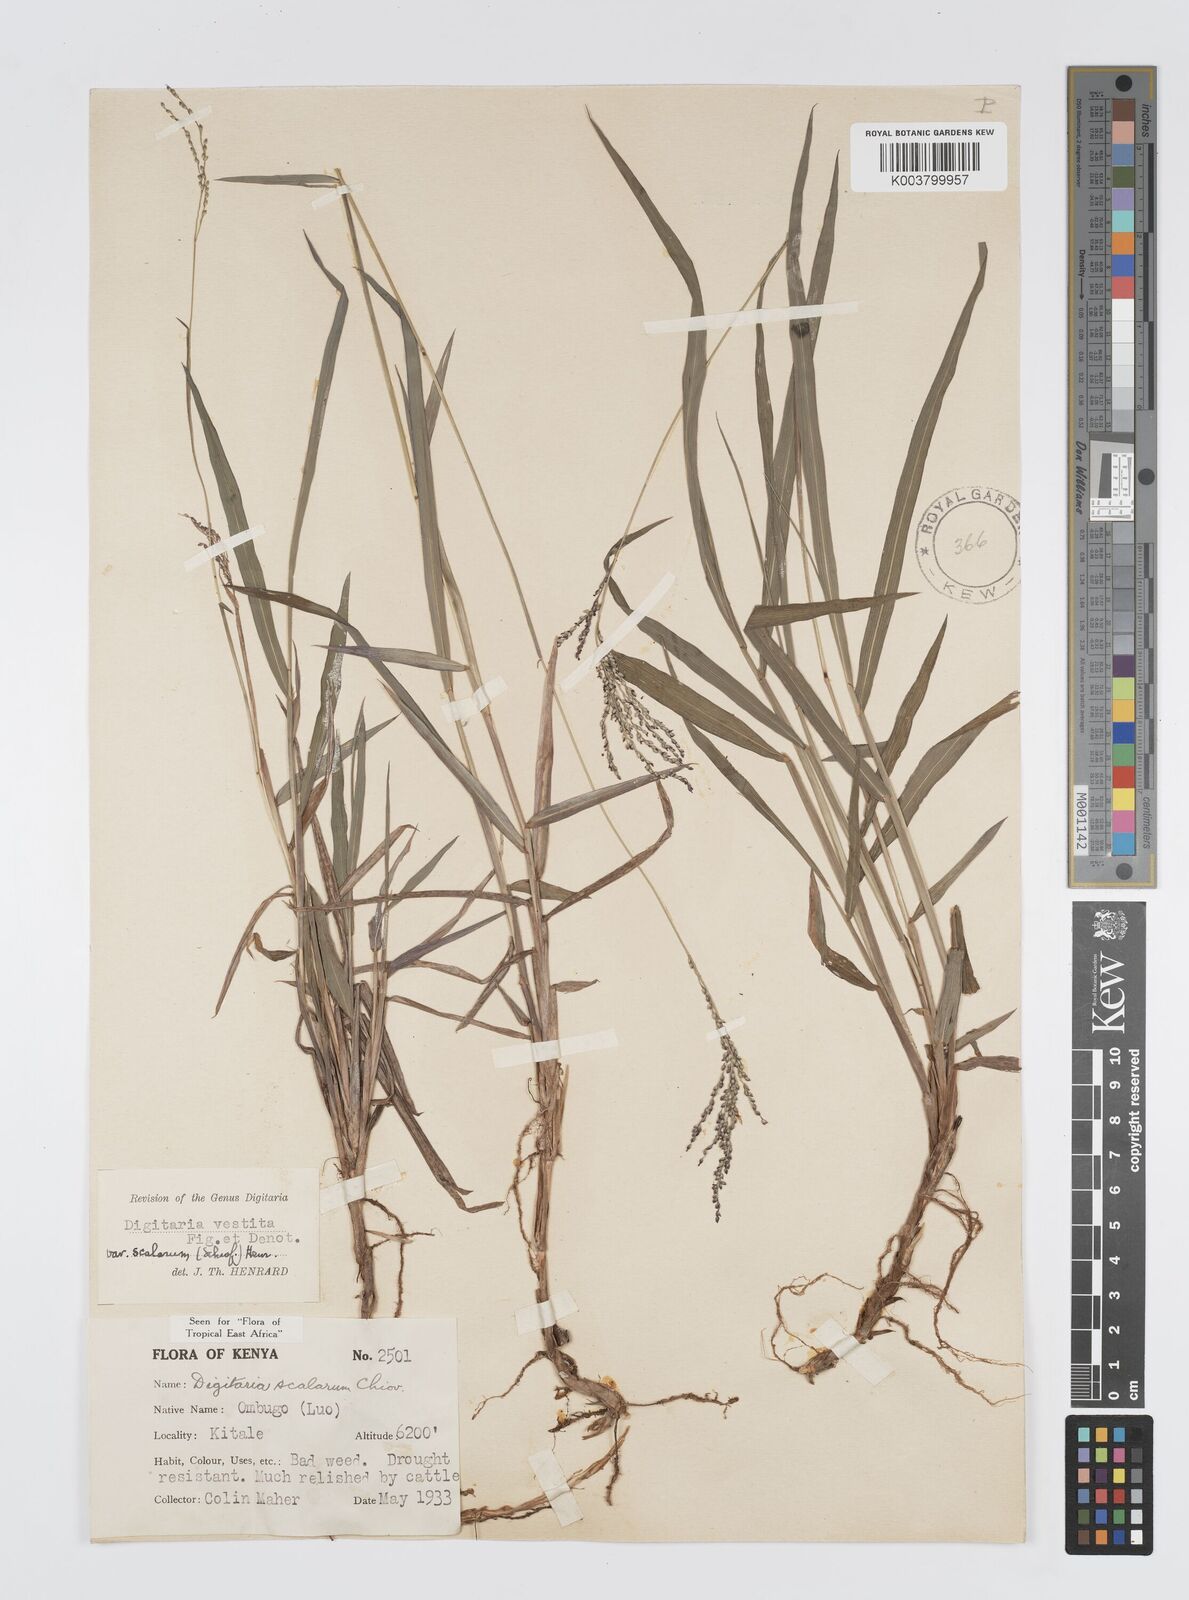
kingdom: Plantae
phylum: Tracheophyta
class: Liliopsida
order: Poales
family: Poaceae
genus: Digitaria
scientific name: Digitaria abyssinica
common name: African couchgrass
